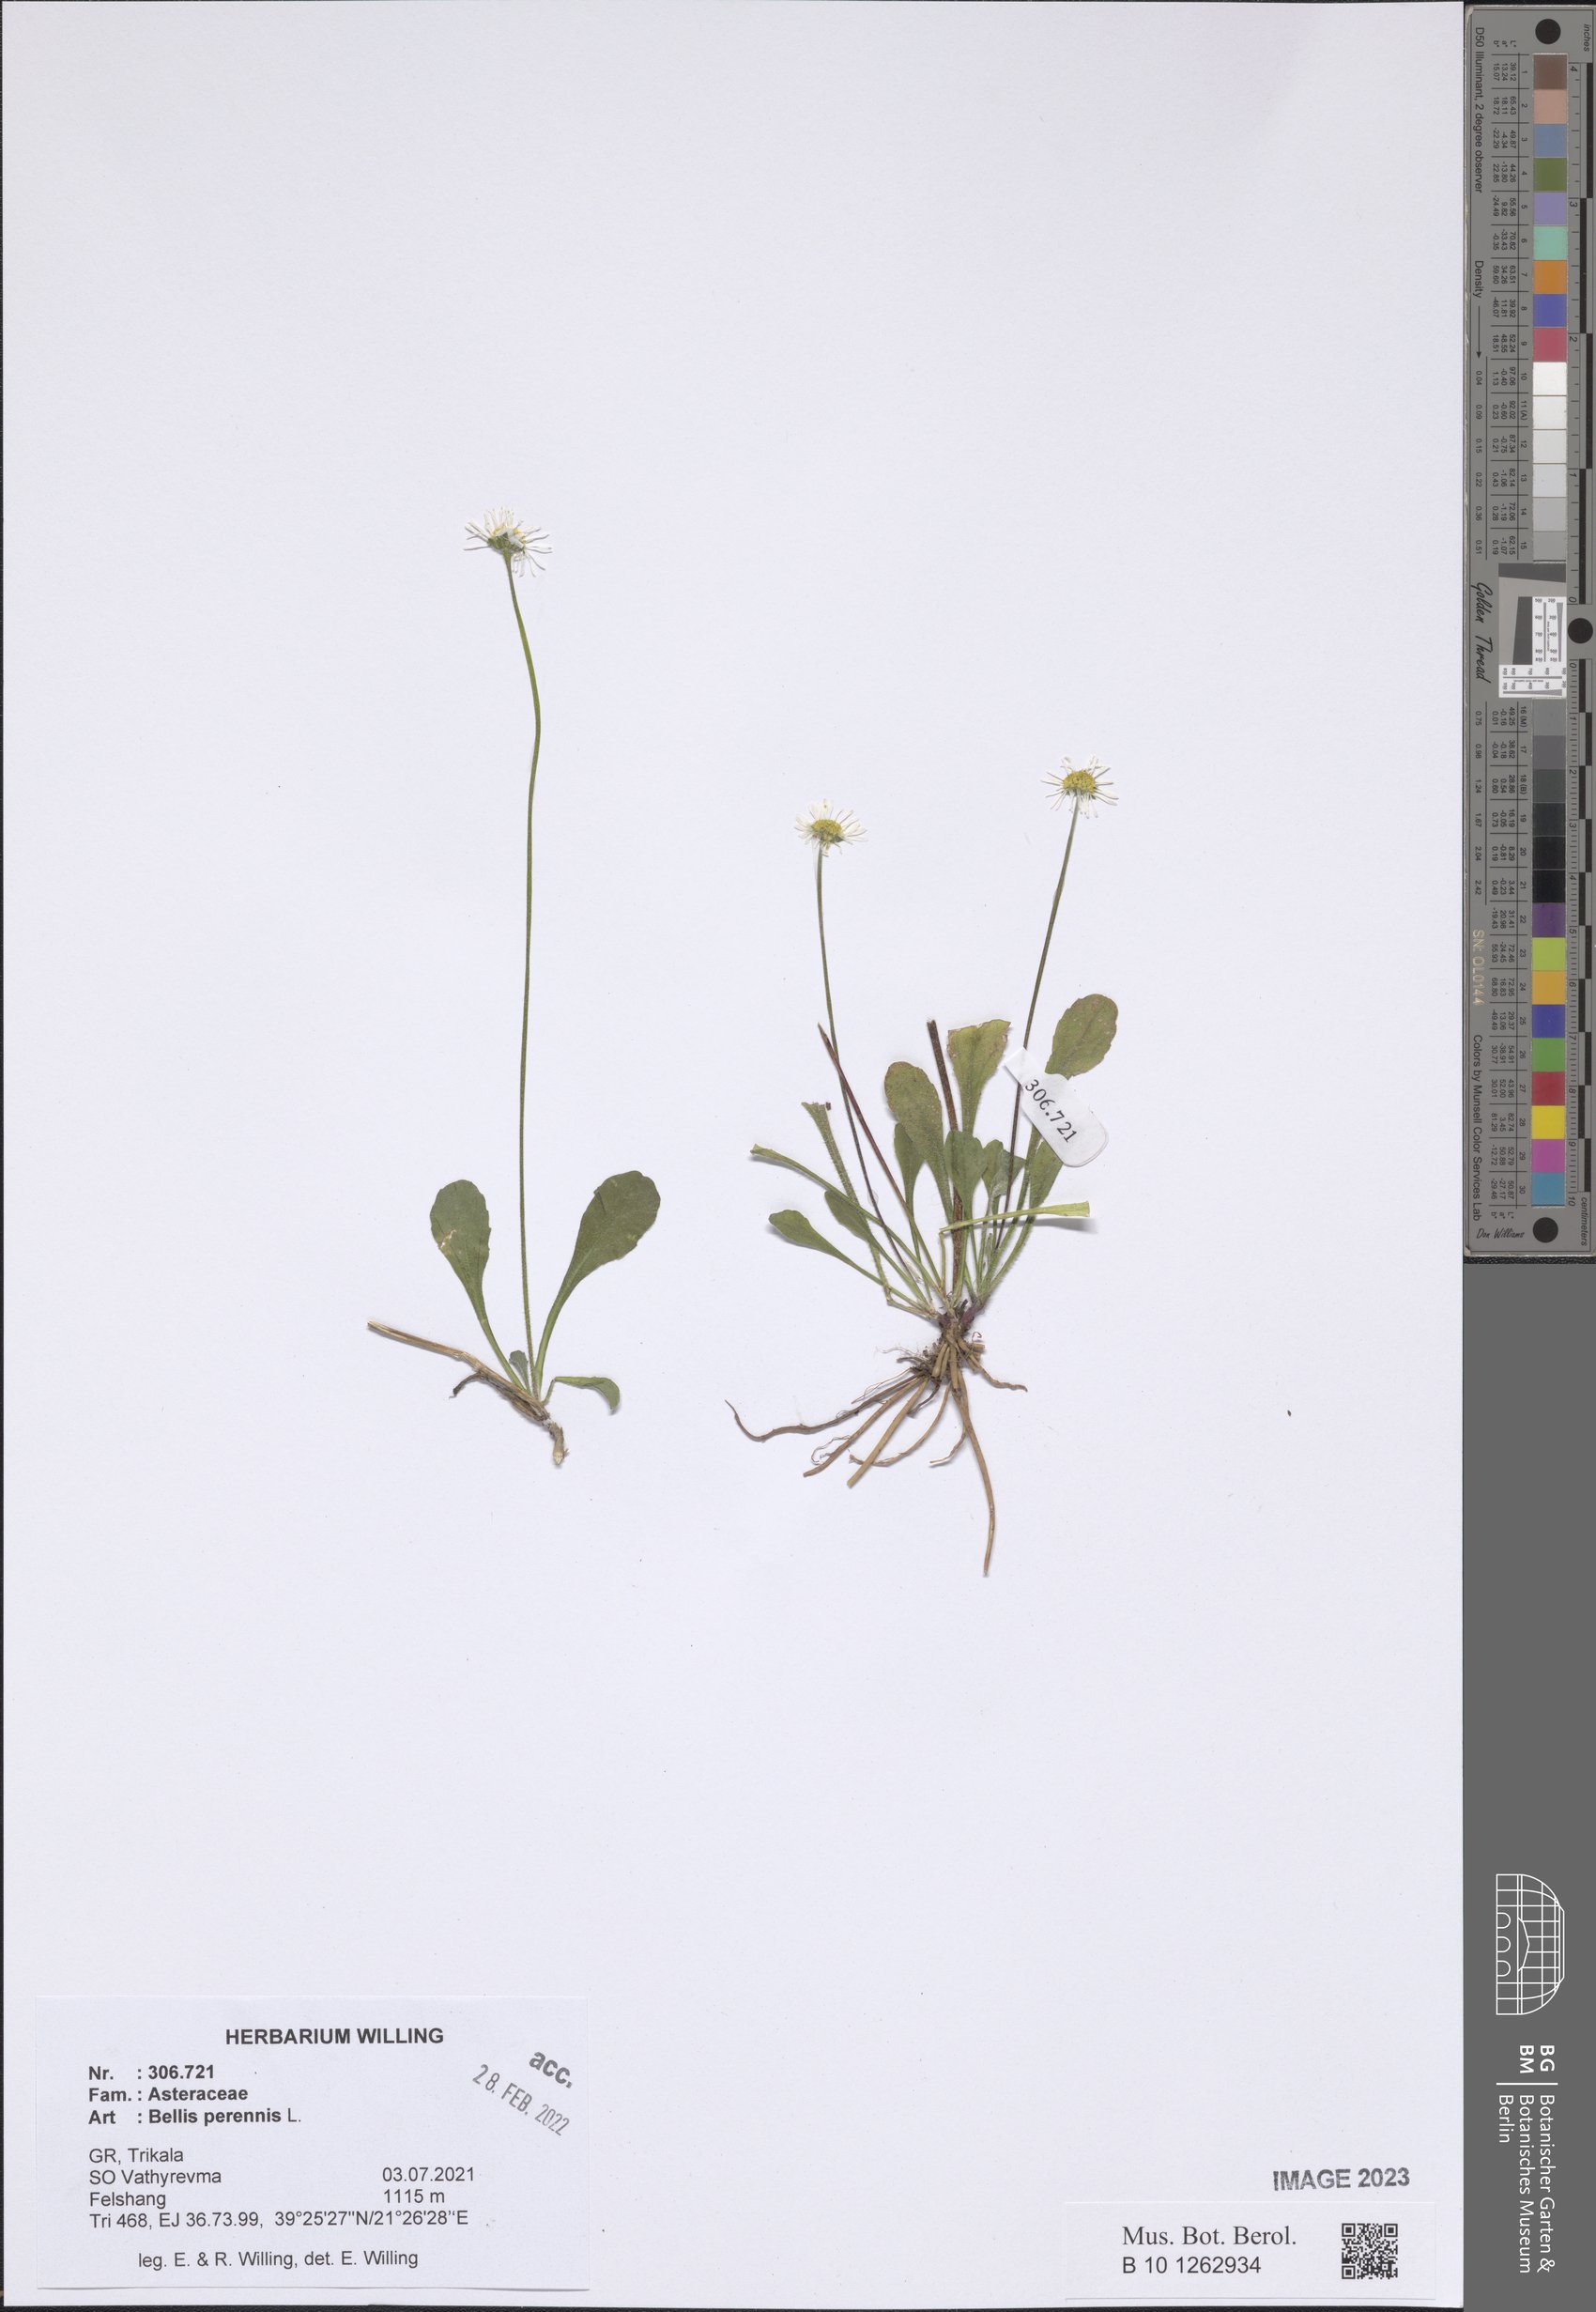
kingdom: Plantae
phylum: Tracheophyta
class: Magnoliopsida
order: Asterales
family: Asteraceae
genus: Bellis
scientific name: Bellis perennis
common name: Lawndaisy
